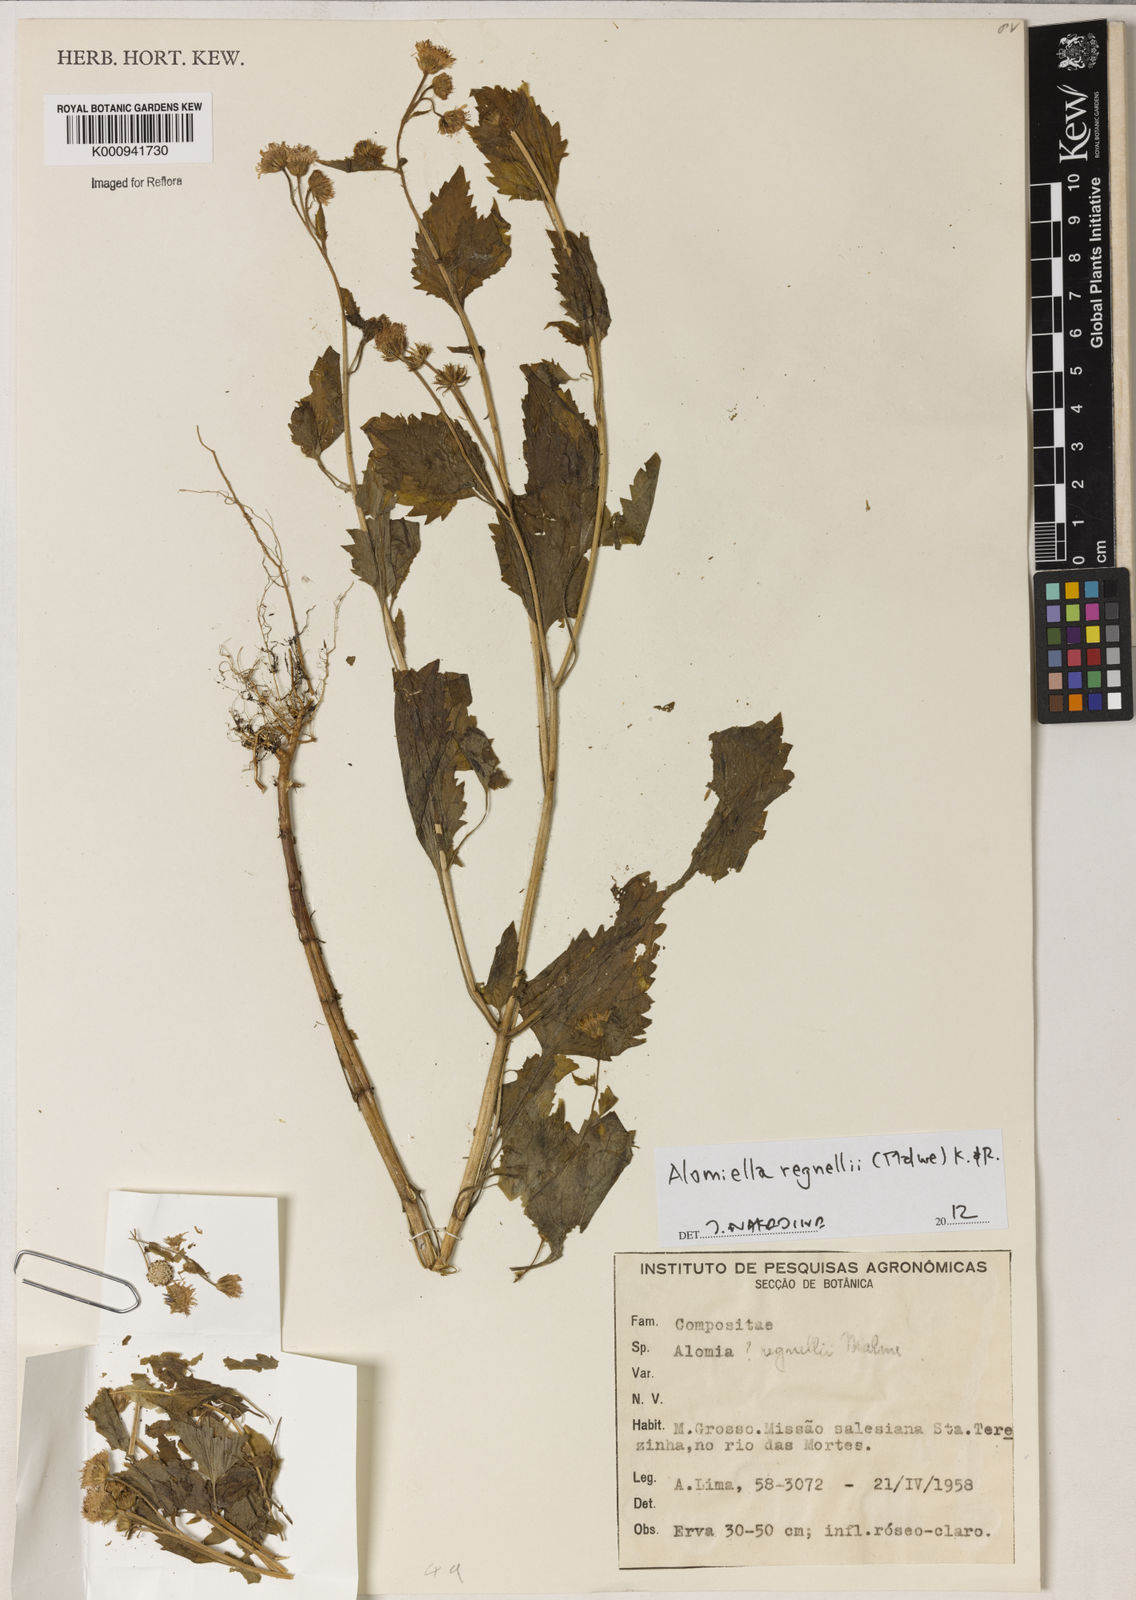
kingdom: Plantae
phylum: Tracheophyta
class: Magnoliopsida
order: Asterales
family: Asteraceae
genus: Alomiella
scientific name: Alomiella regnellii
